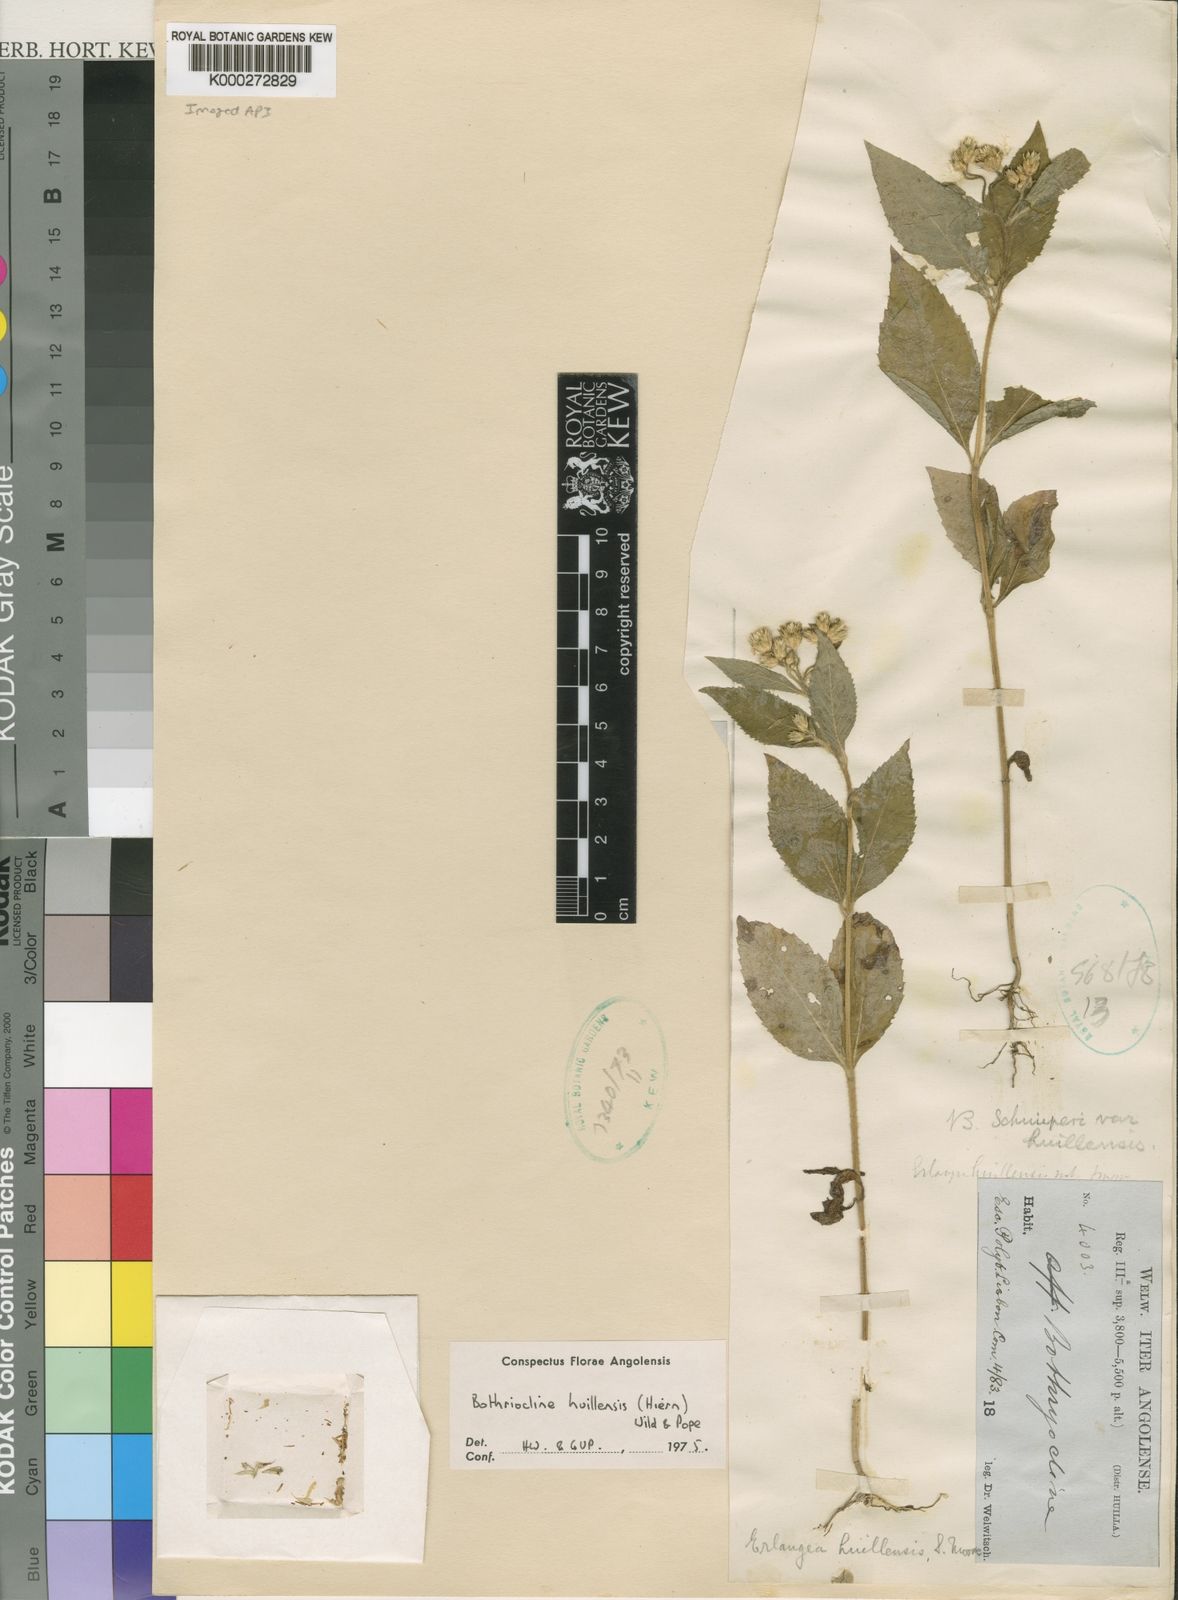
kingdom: Plantae
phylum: Tracheophyta
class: Magnoliopsida
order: Asterales
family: Asteraceae
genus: Bothriocline
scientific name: Bothriocline huillensis
